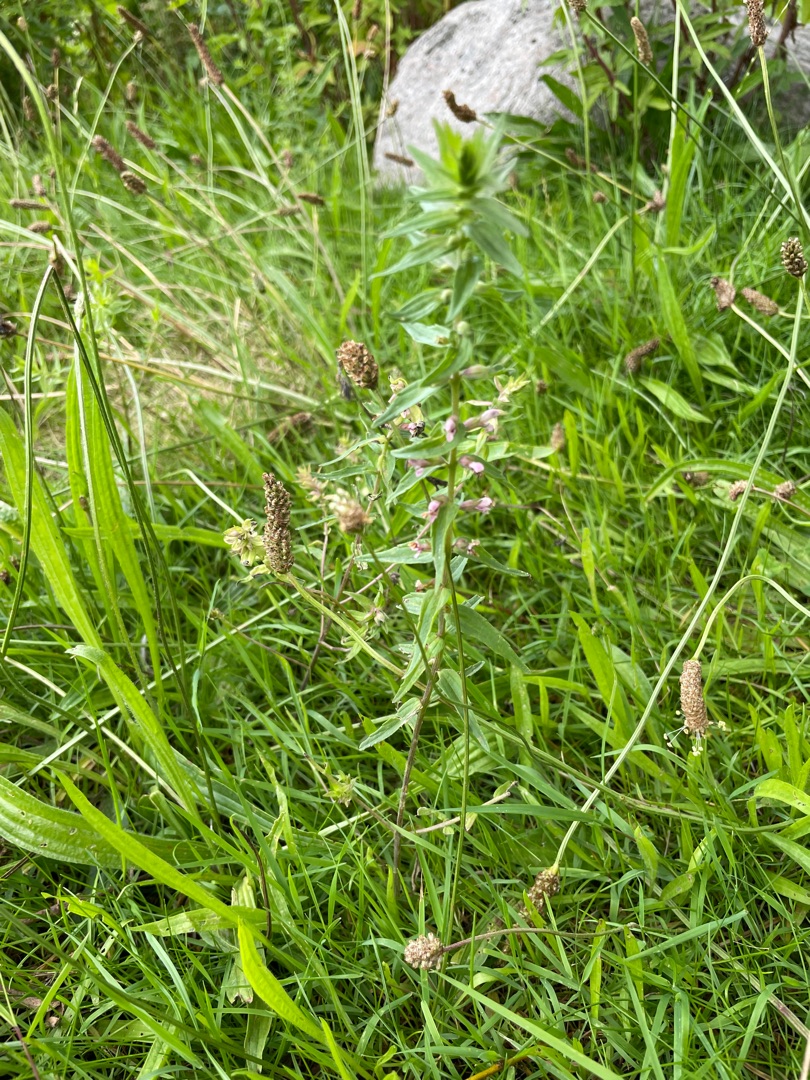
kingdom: Plantae
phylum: Tracheophyta
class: Magnoliopsida
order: Lamiales
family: Orobanchaceae
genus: Odontites
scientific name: Odontites vulgaris
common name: Høst-rødtop
